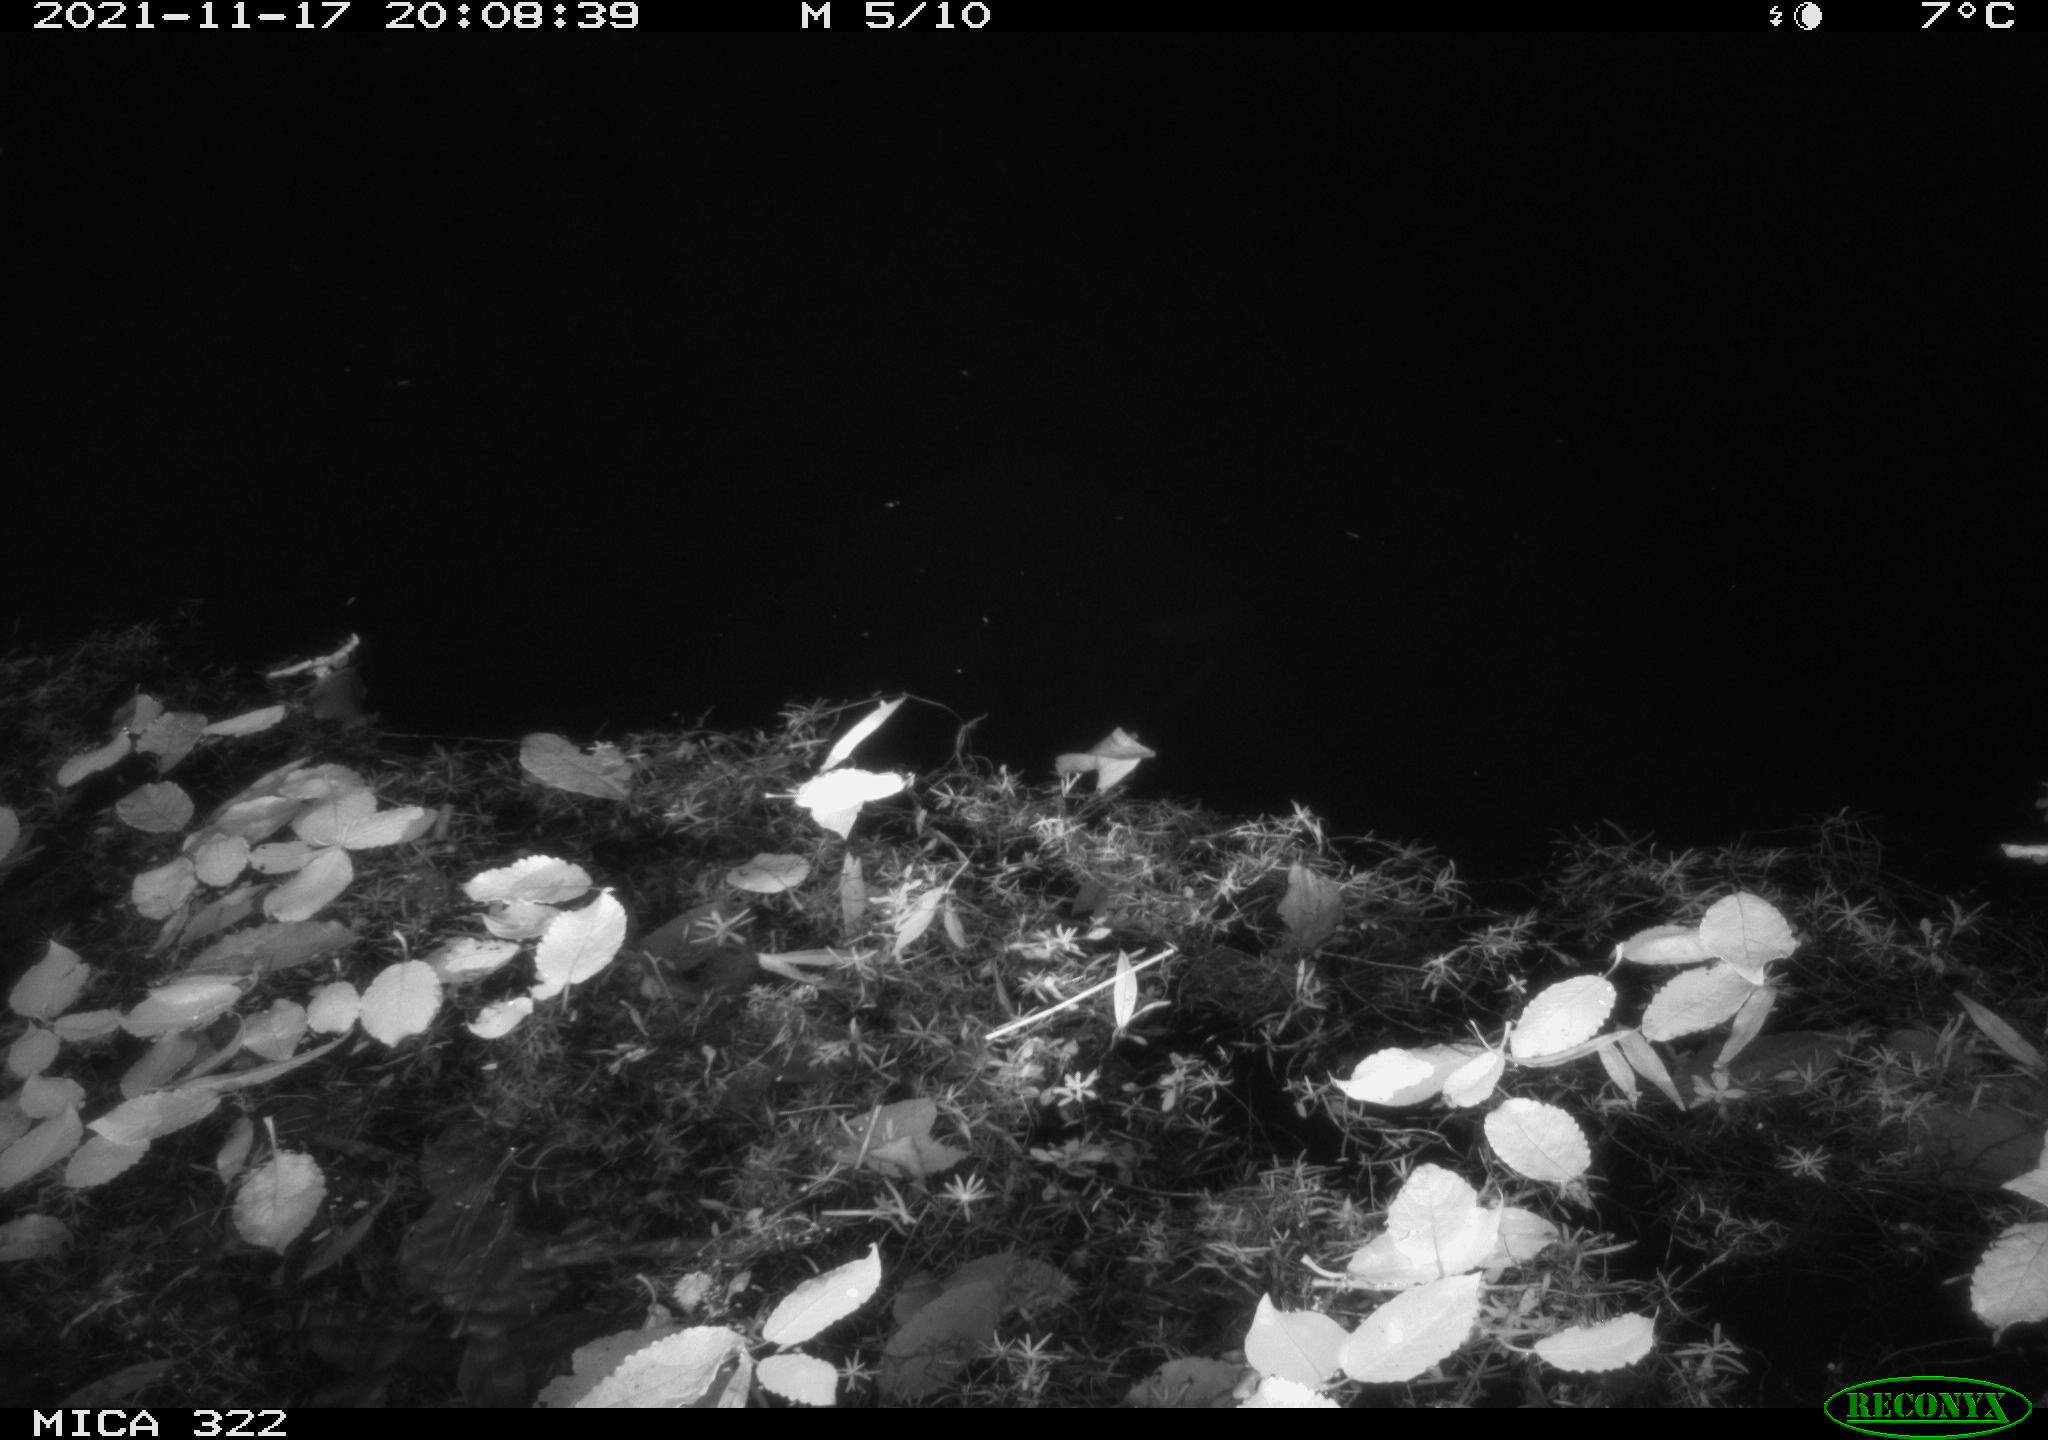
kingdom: Animalia
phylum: Chordata
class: Mammalia
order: Rodentia
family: Muridae
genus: Rattus
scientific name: Rattus norvegicus
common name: Brown rat
